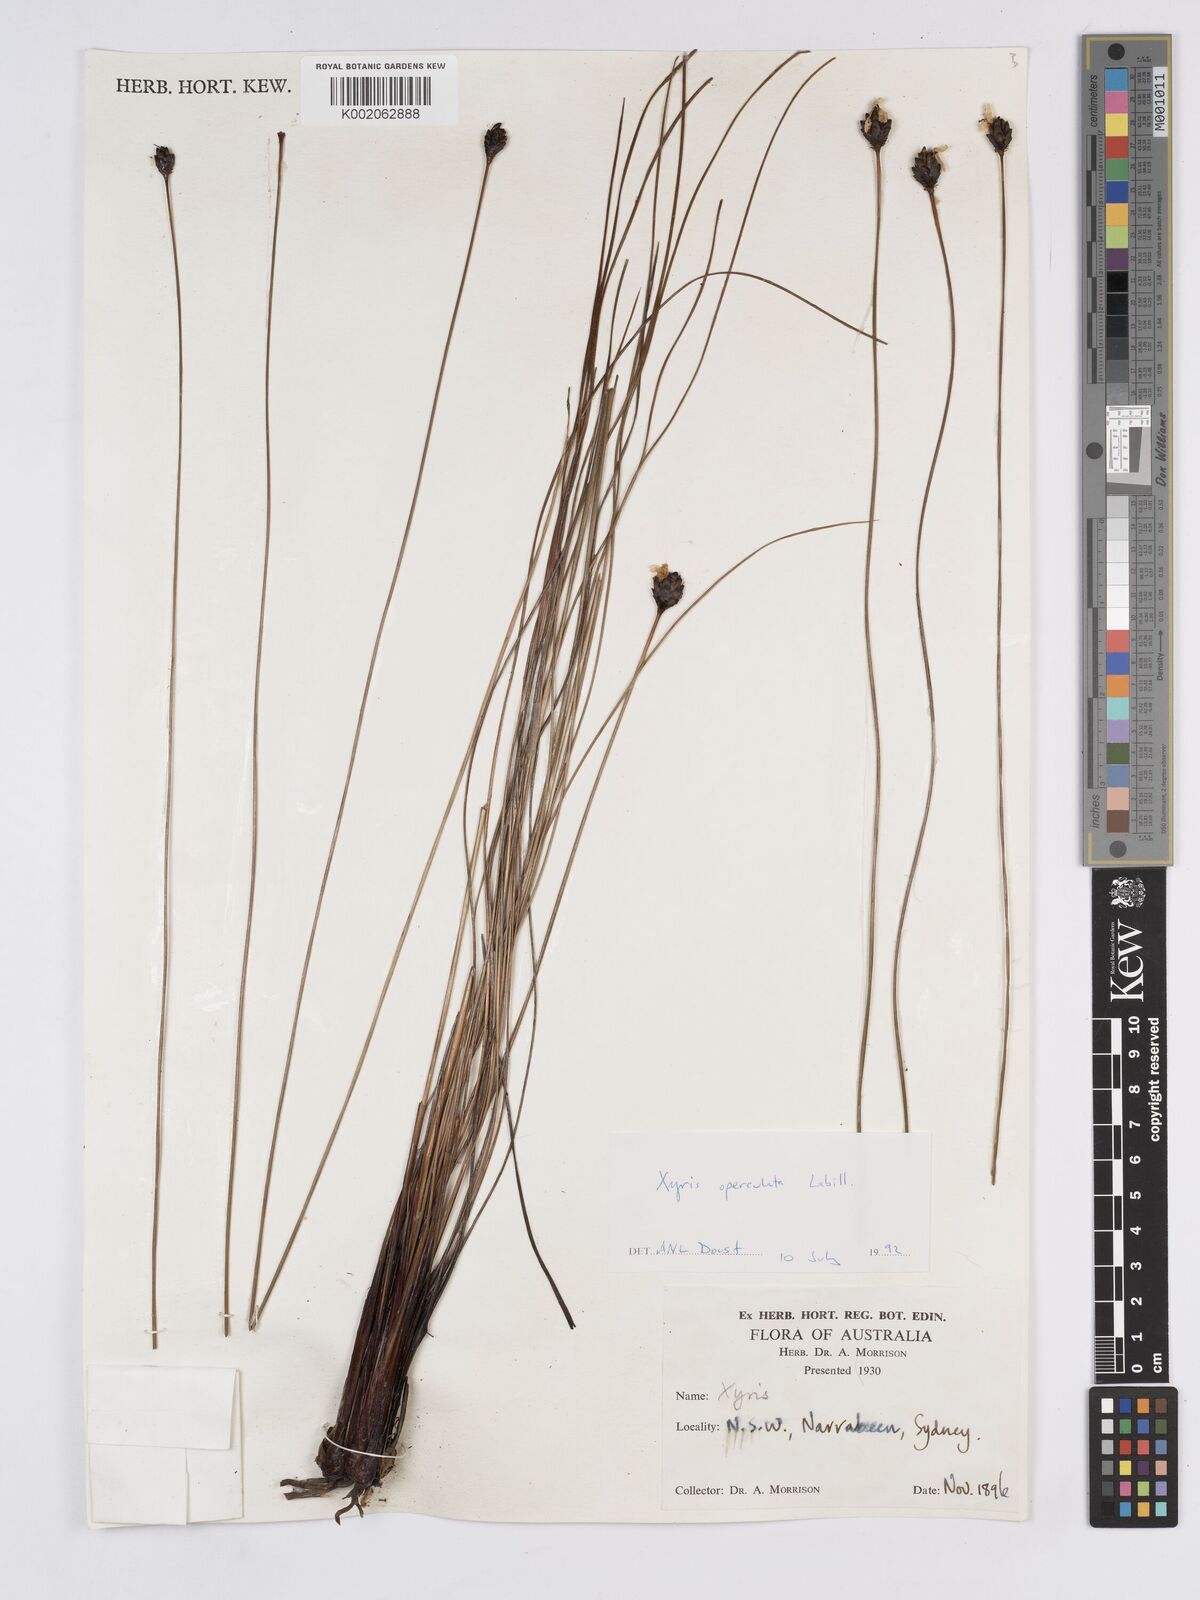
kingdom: Plantae
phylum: Tracheophyta
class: Liliopsida
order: Poales
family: Xyridaceae
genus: Xyris
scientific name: Xyris operculata
